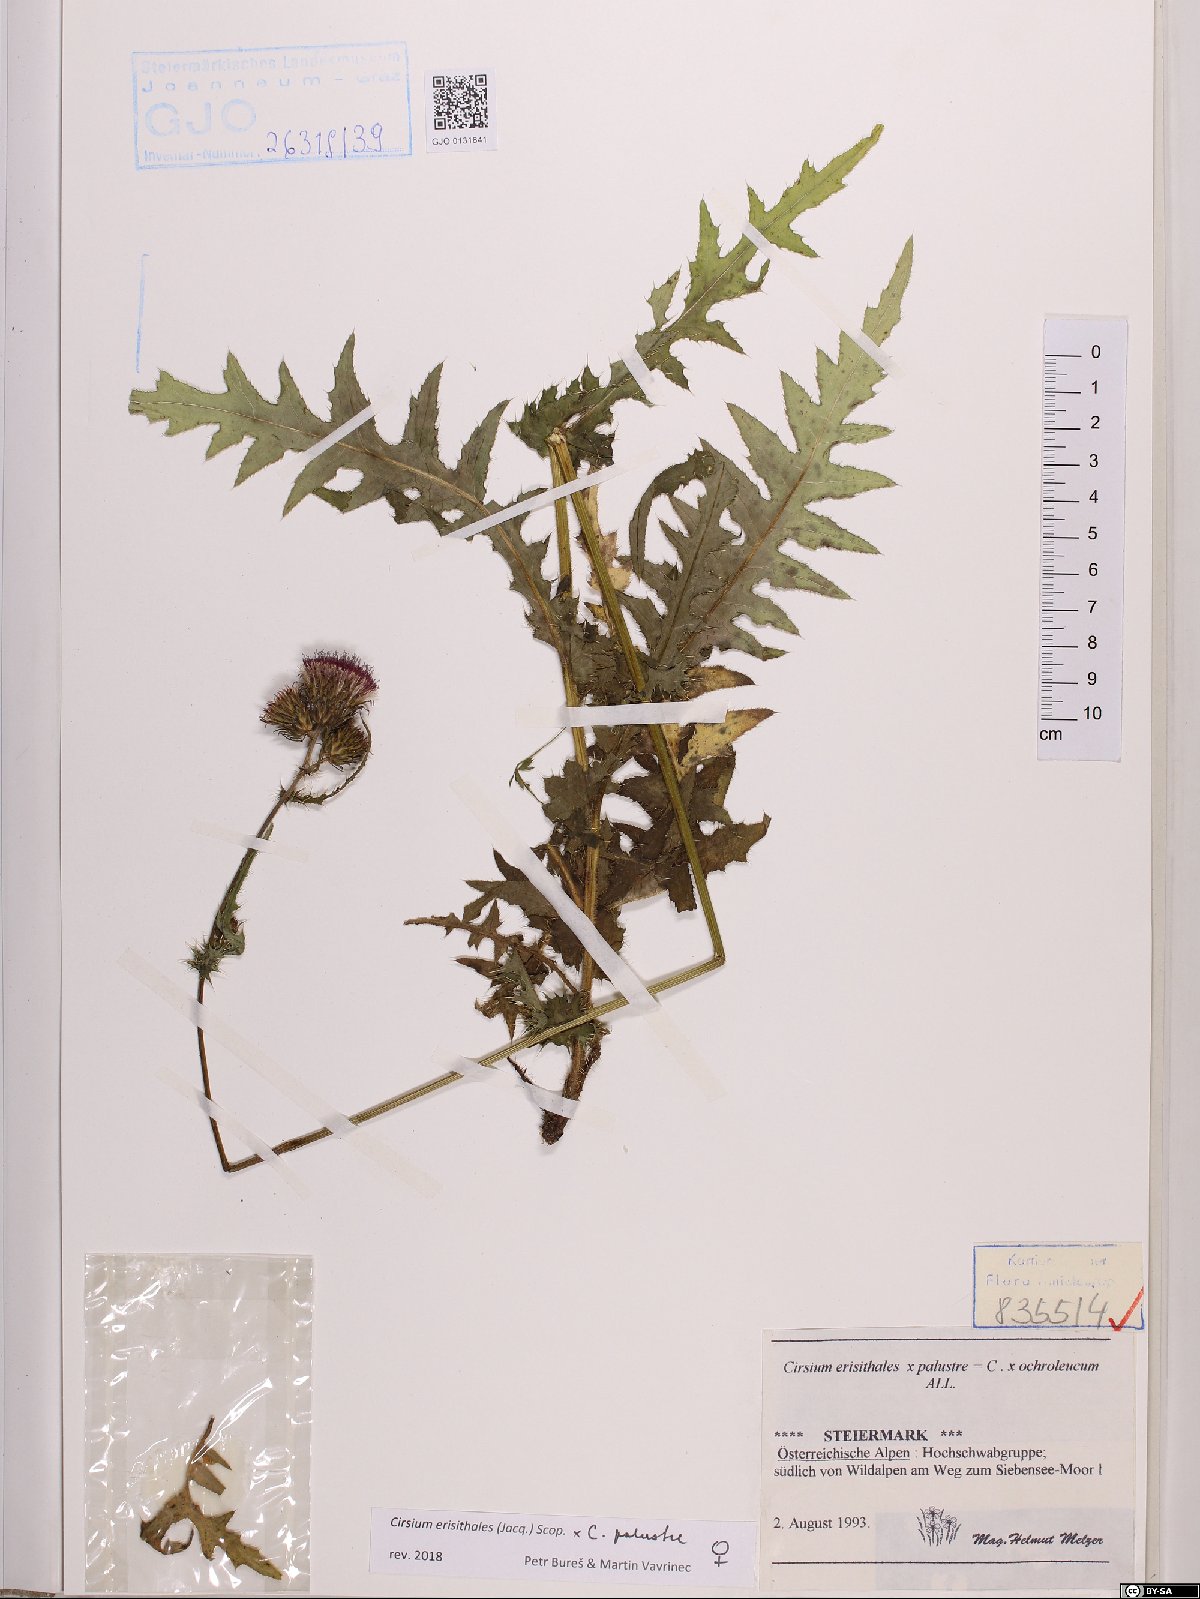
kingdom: Plantae
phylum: Tracheophyta
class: Magnoliopsida
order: Asterales
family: Asteraceae
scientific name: Asteraceae
